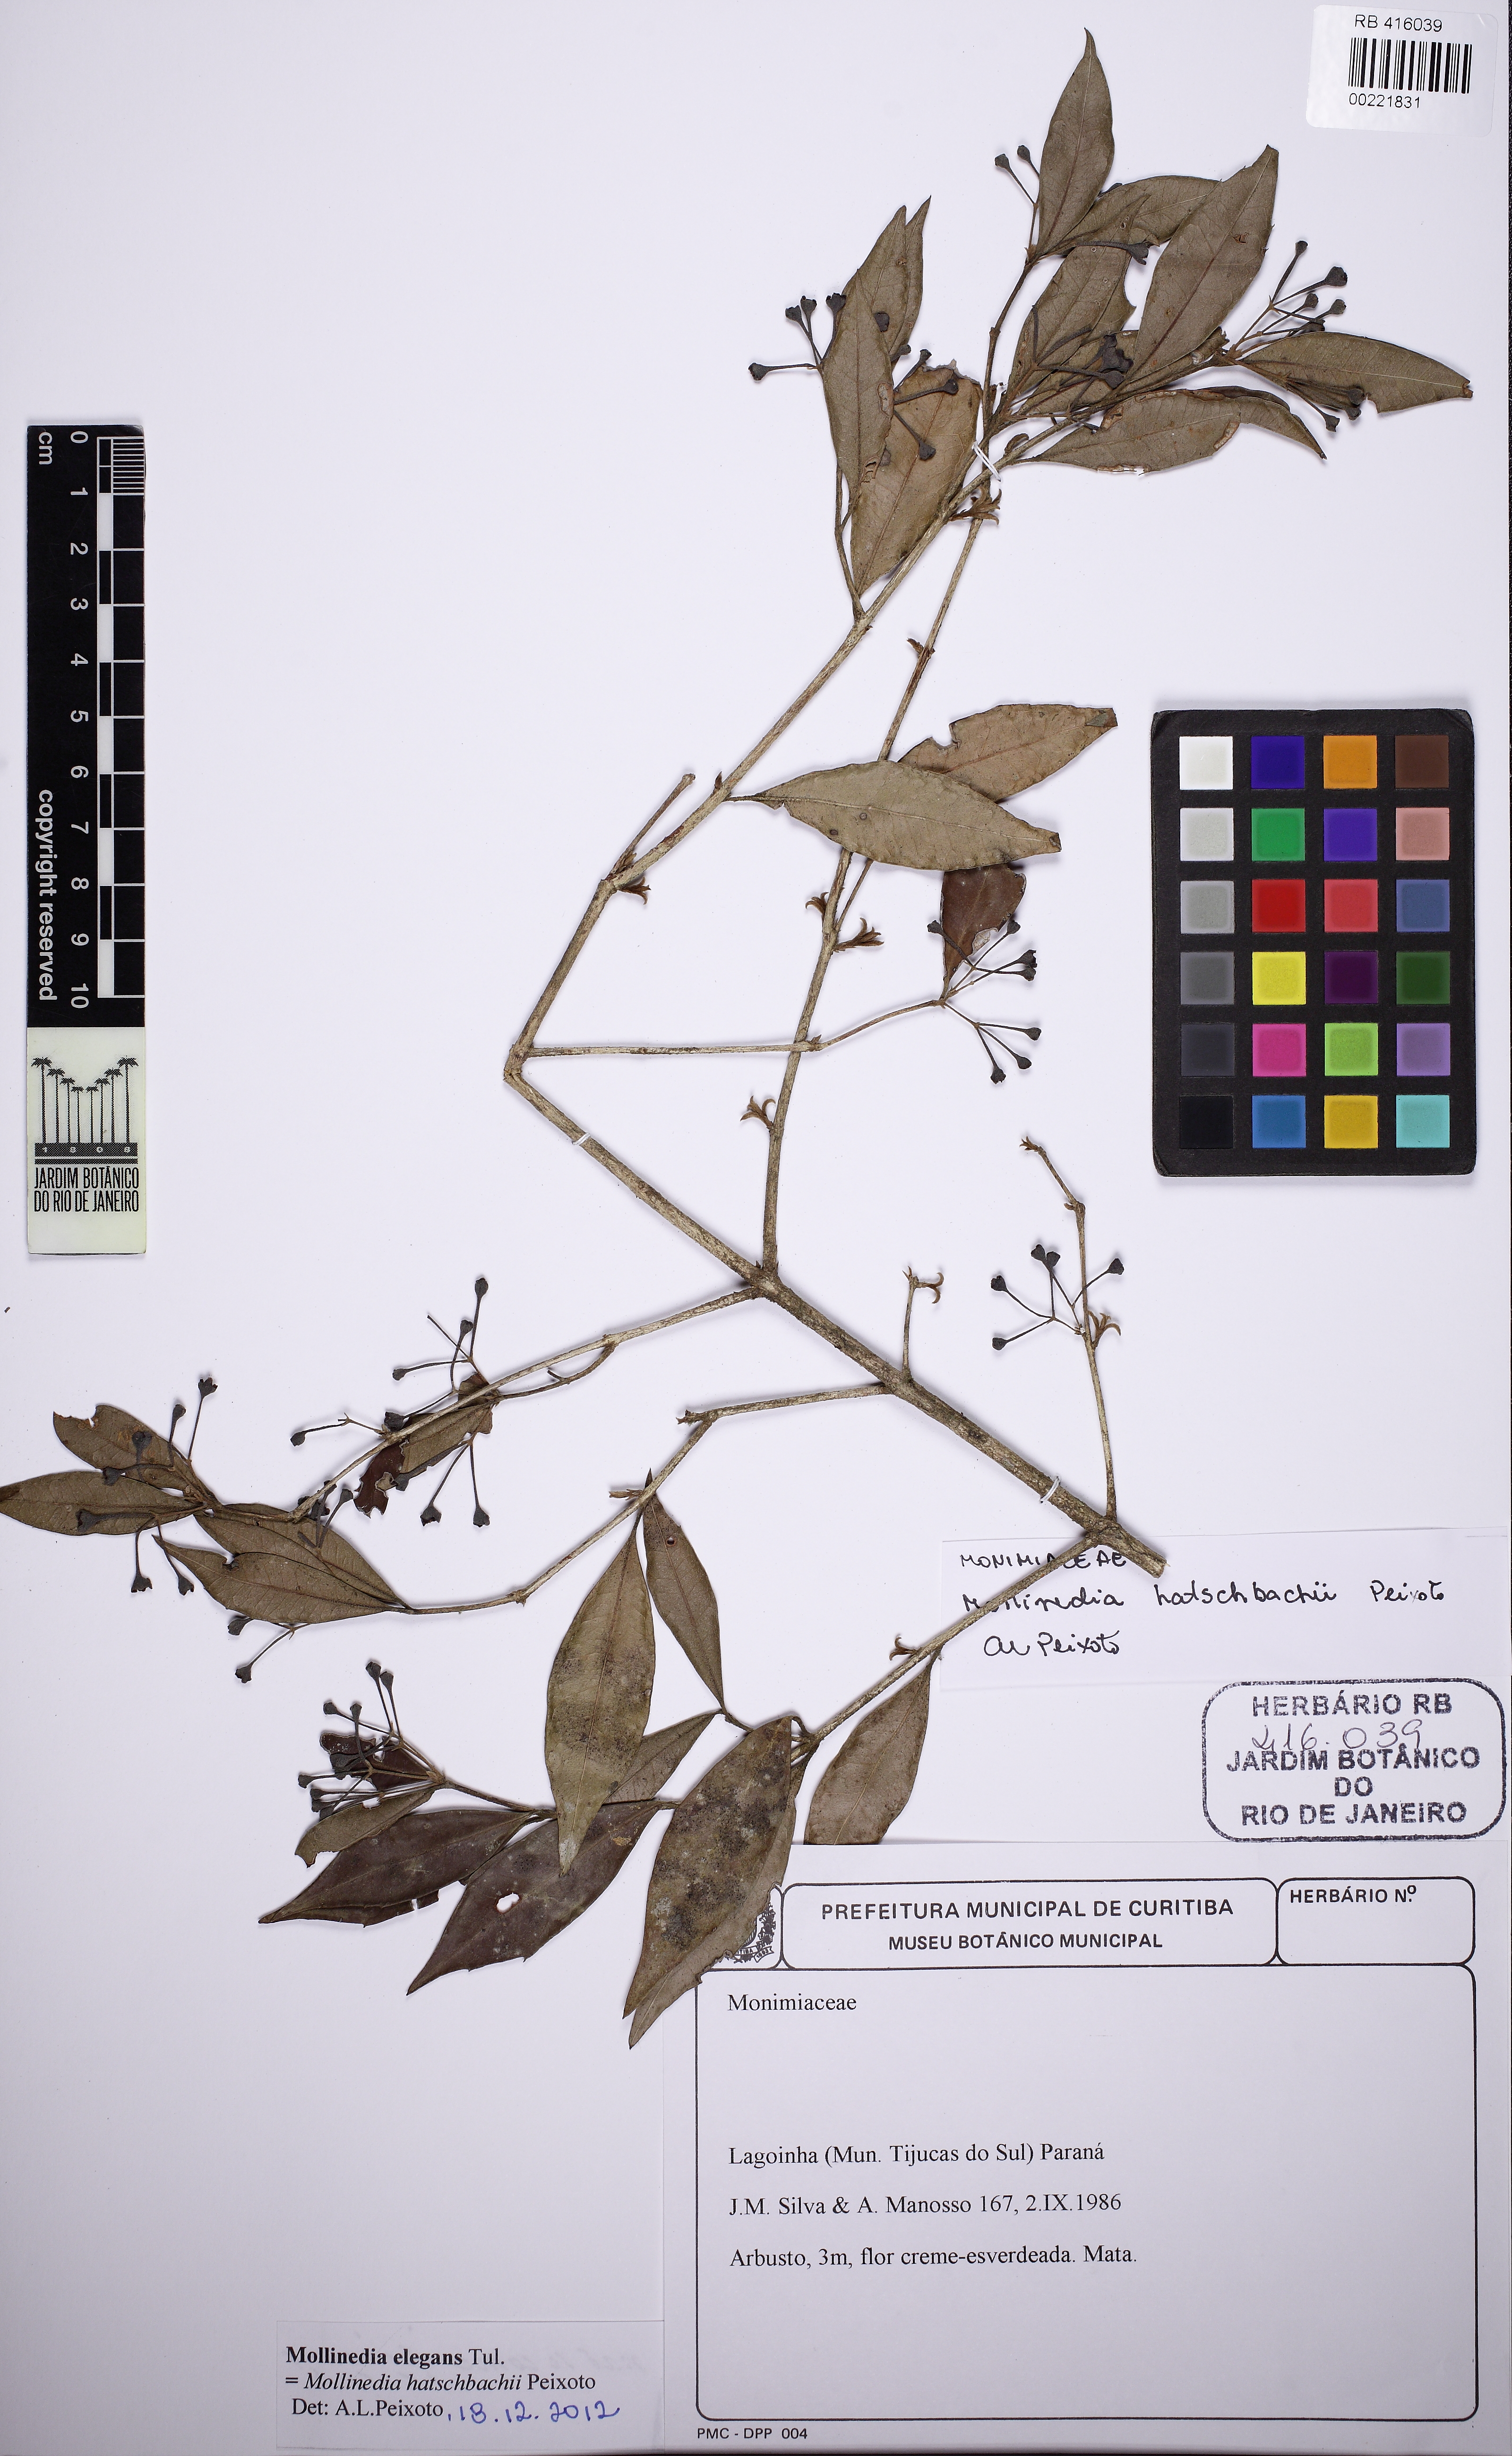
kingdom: Plantae
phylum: Tracheophyta
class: Magnoliopsida
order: Laurales
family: Monimiaceae
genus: Mollinedia
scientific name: Mollinedia hatschbachii
